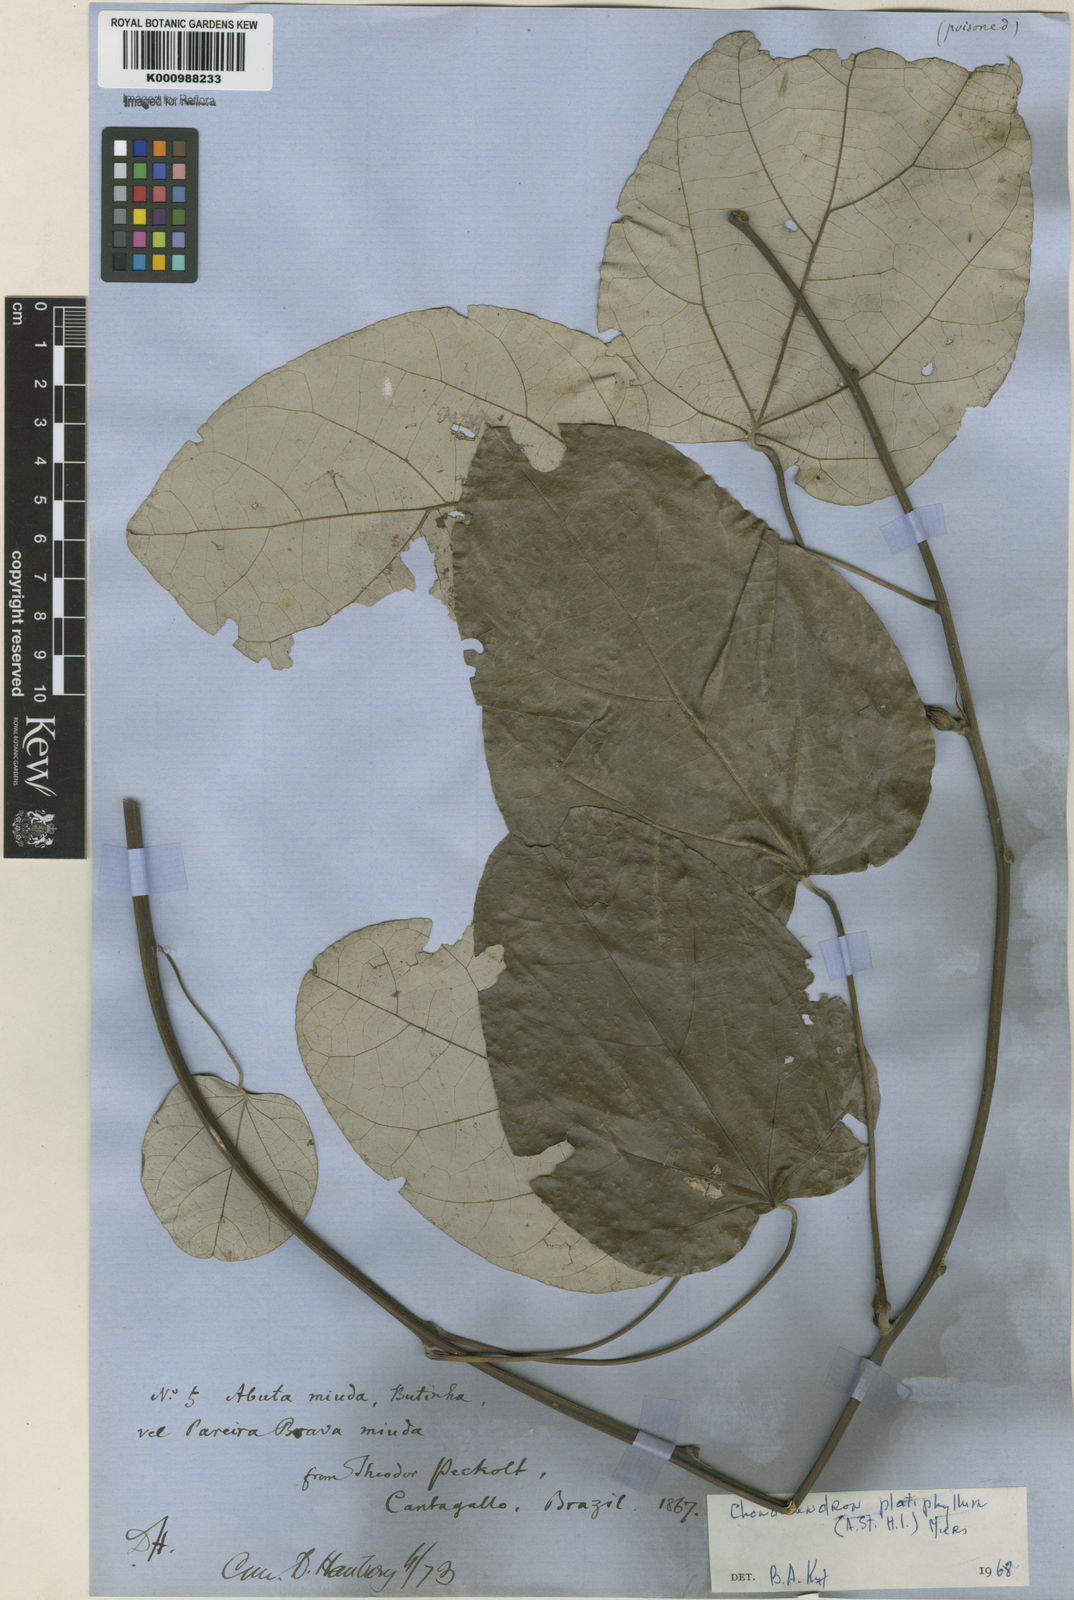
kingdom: Plantae
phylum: Tracheophyta
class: Magnoliopsida
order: Ranunculales
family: Menispermaceae
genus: Chondrodendron
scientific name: Chondrodendron platyphyllum
